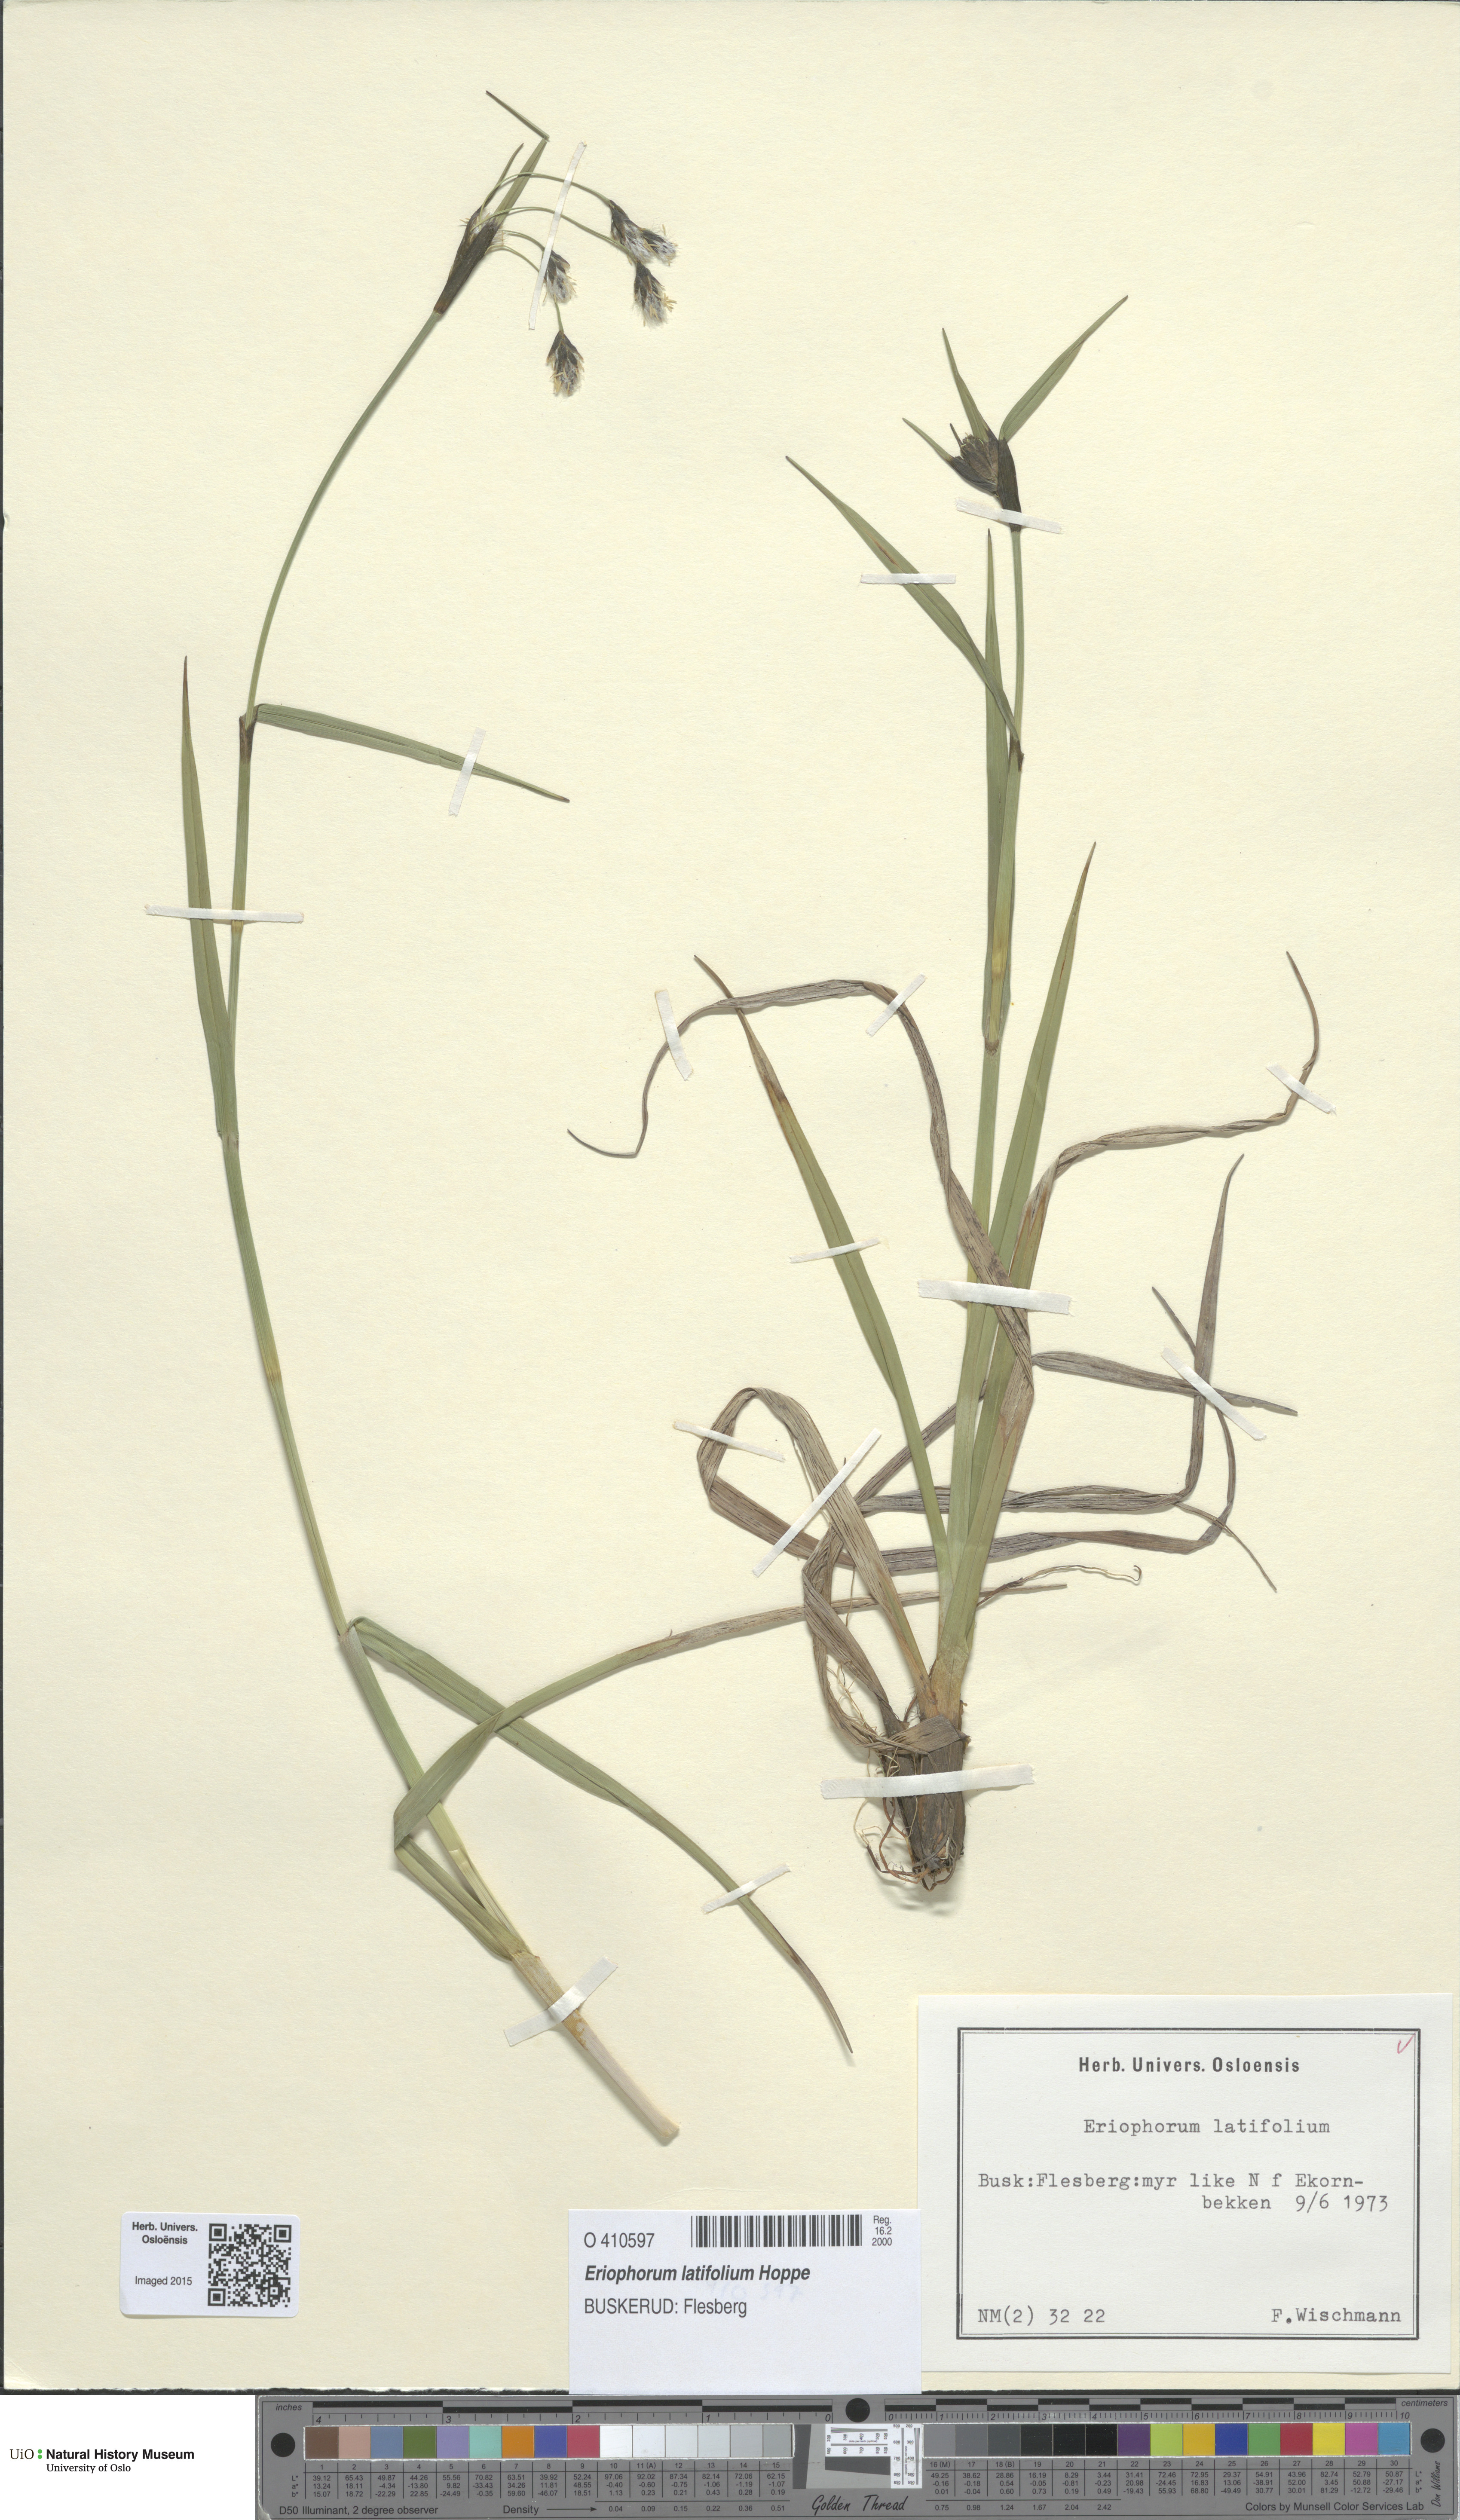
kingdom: Plantae
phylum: Tracheophyta
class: Liliopsida
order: Poales
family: Cyperaceae
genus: Eriophorum
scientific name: Eriophorum latifolium
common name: Broad-leaved cottongrass
